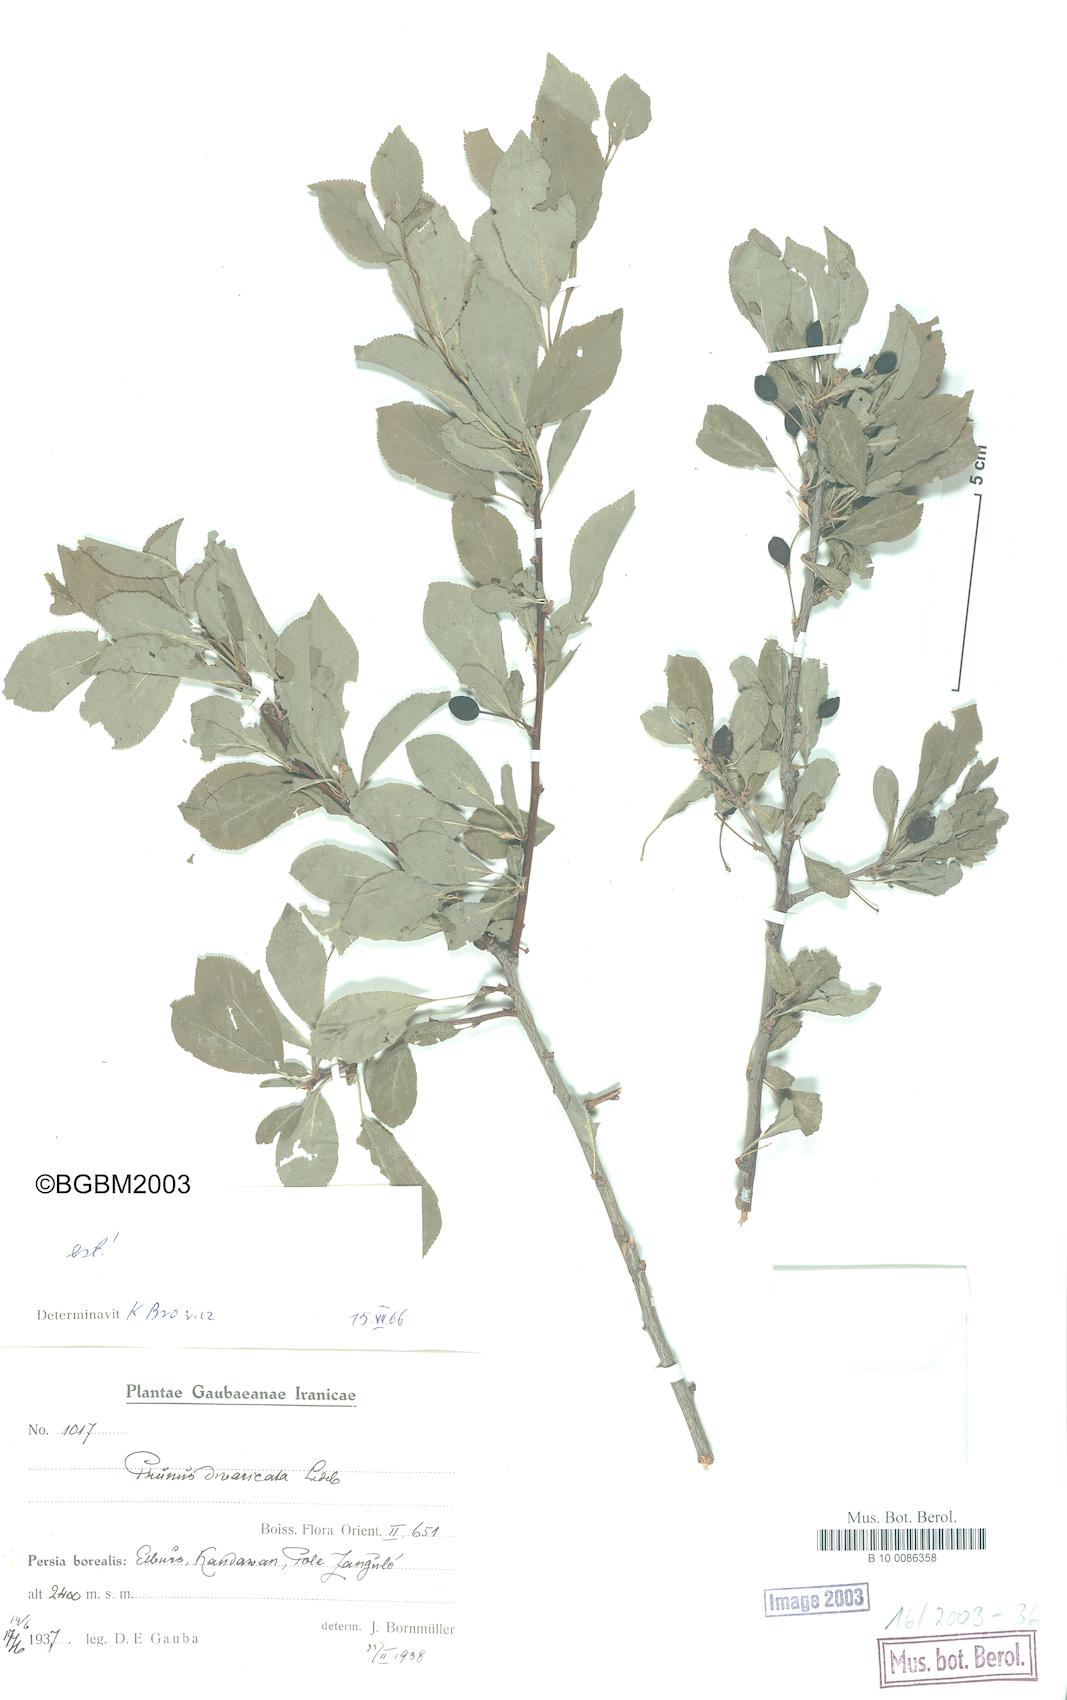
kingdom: Plantae
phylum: Tracheophyta
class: Magnoliopsida
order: Rosales
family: Rosaceae
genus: Prunus
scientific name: Prunus cerasifera
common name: Cherry plum
